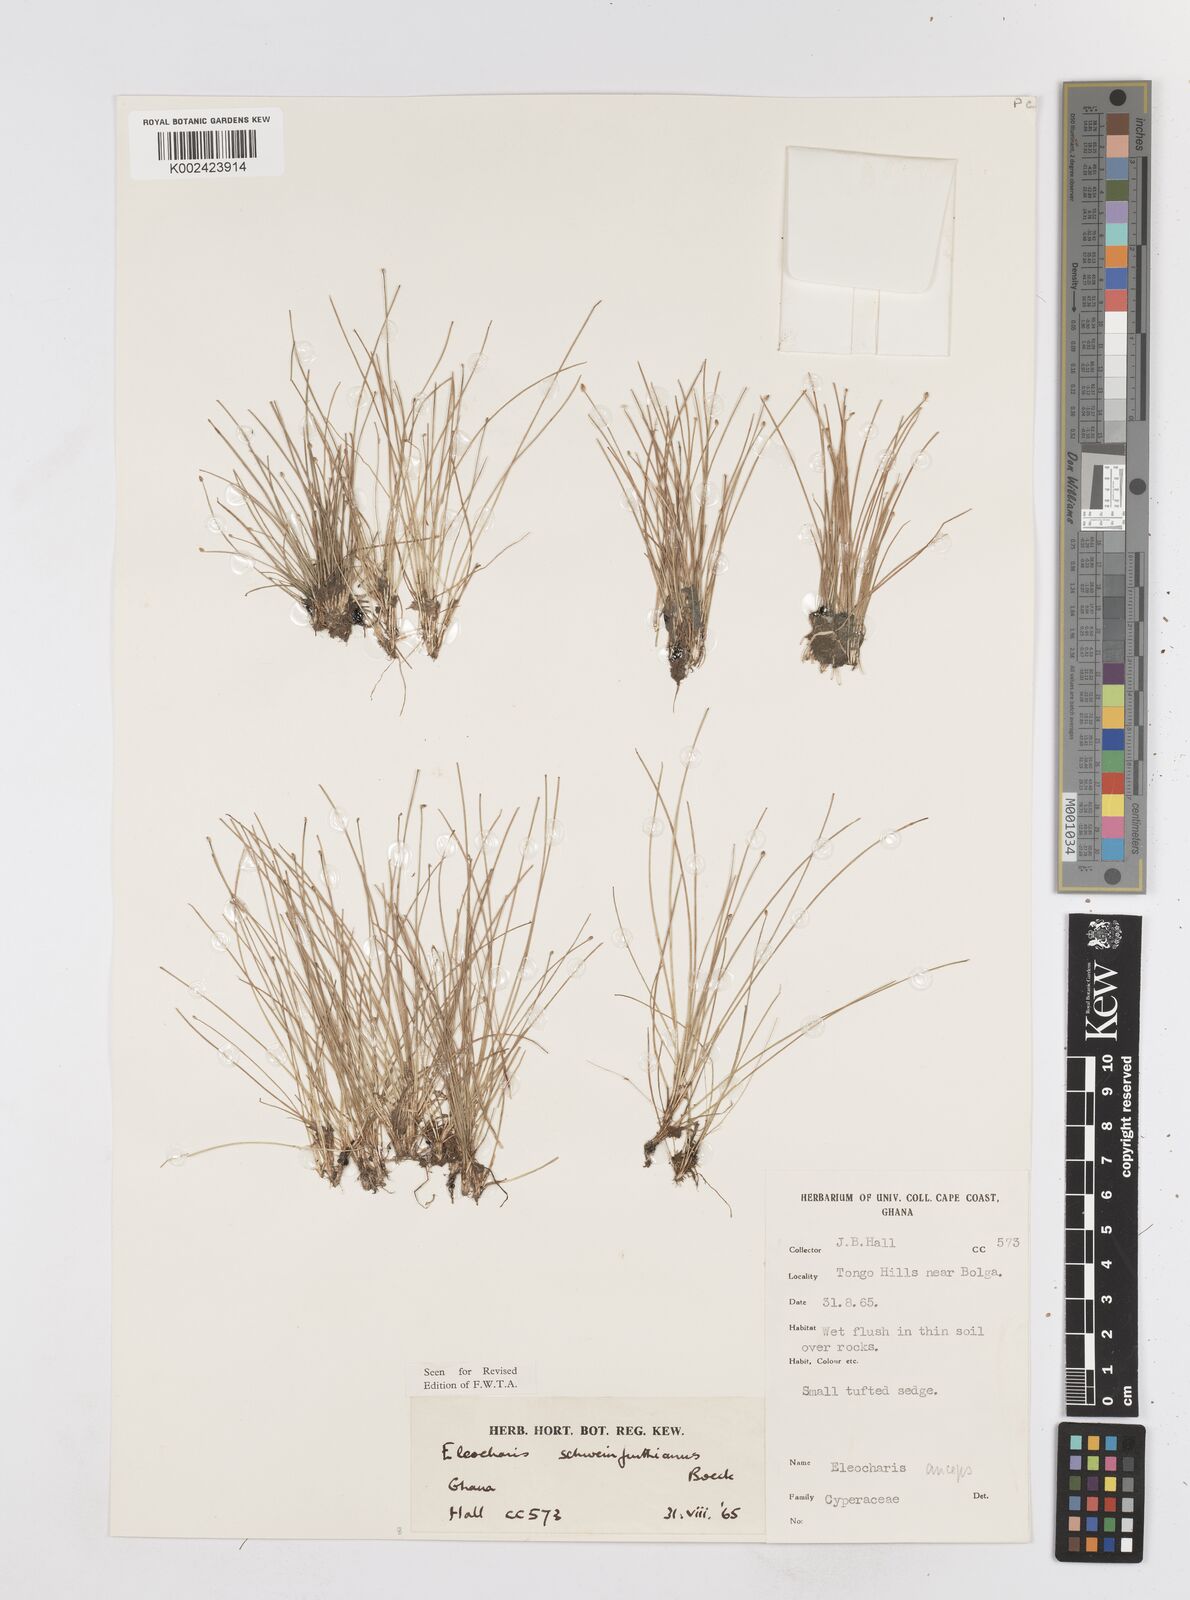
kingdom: Plantae
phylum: Tracheophyta
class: Liliopsida
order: Poales
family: Cyperaceae
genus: Eleocharis
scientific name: Eleocharis setifolia
